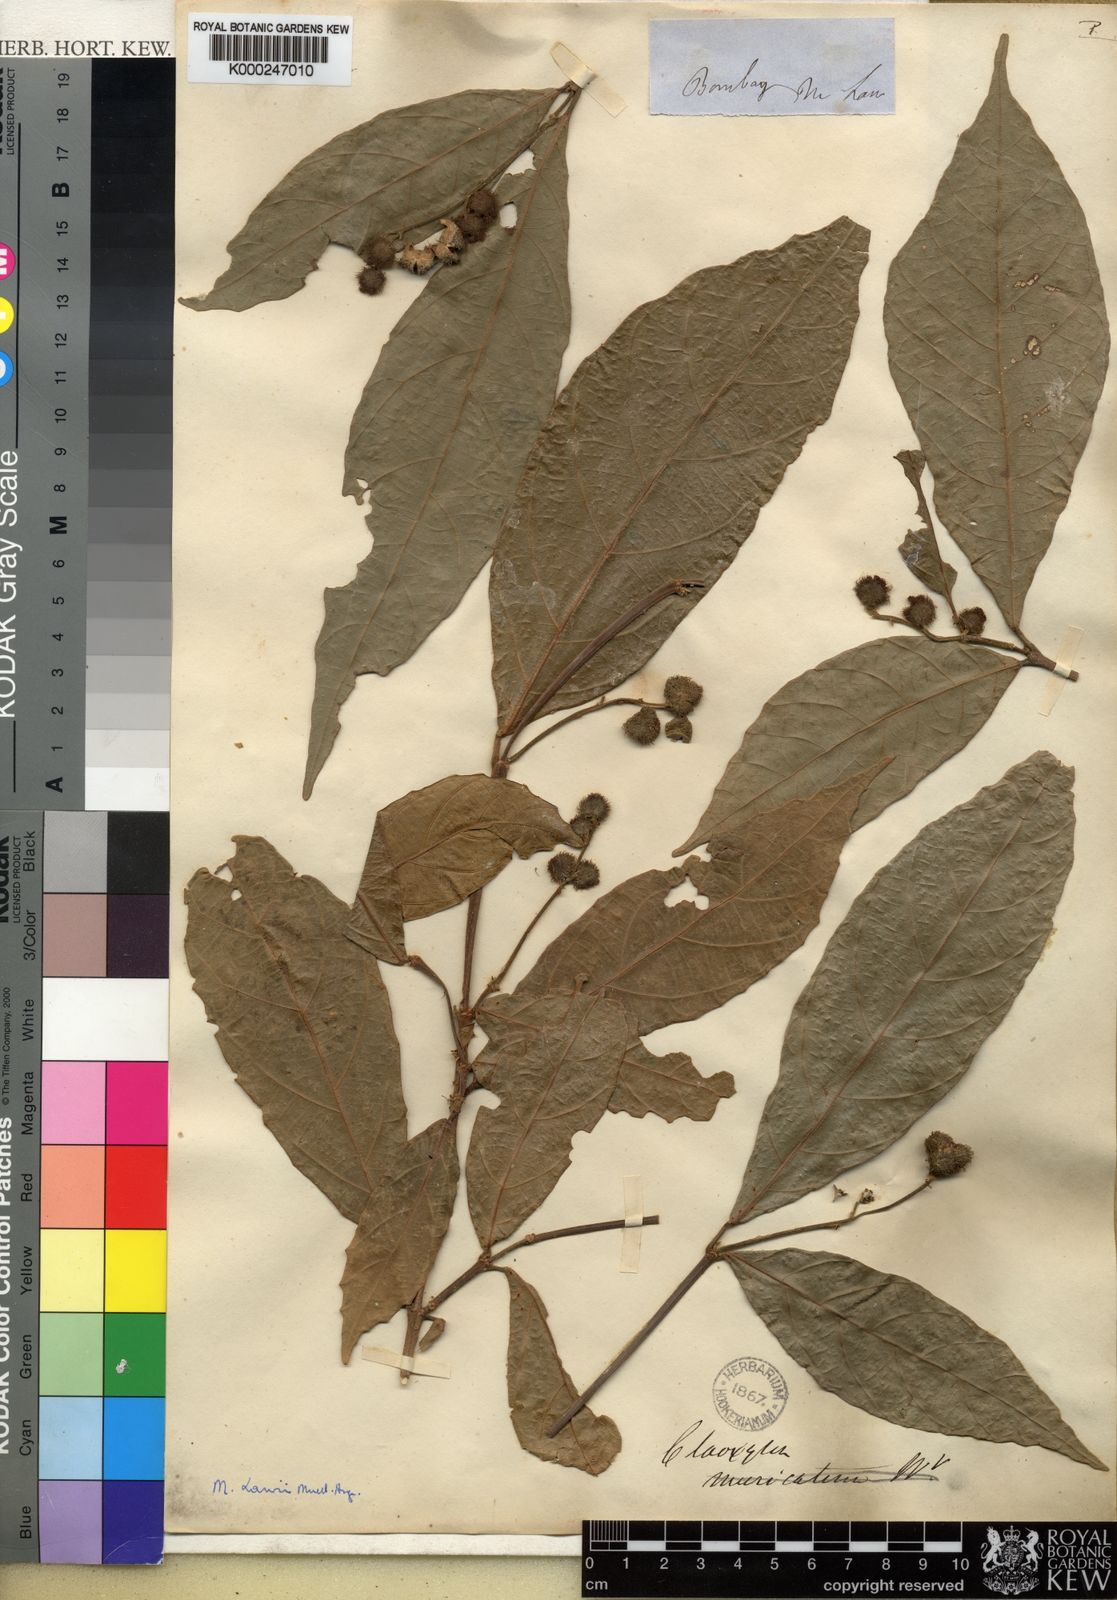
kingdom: Plantae
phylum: Tracheophyta
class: Magnoliopsida
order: Malpighiales
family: Euphorbiaceae
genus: Mallotus
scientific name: Mallotus resinosus
